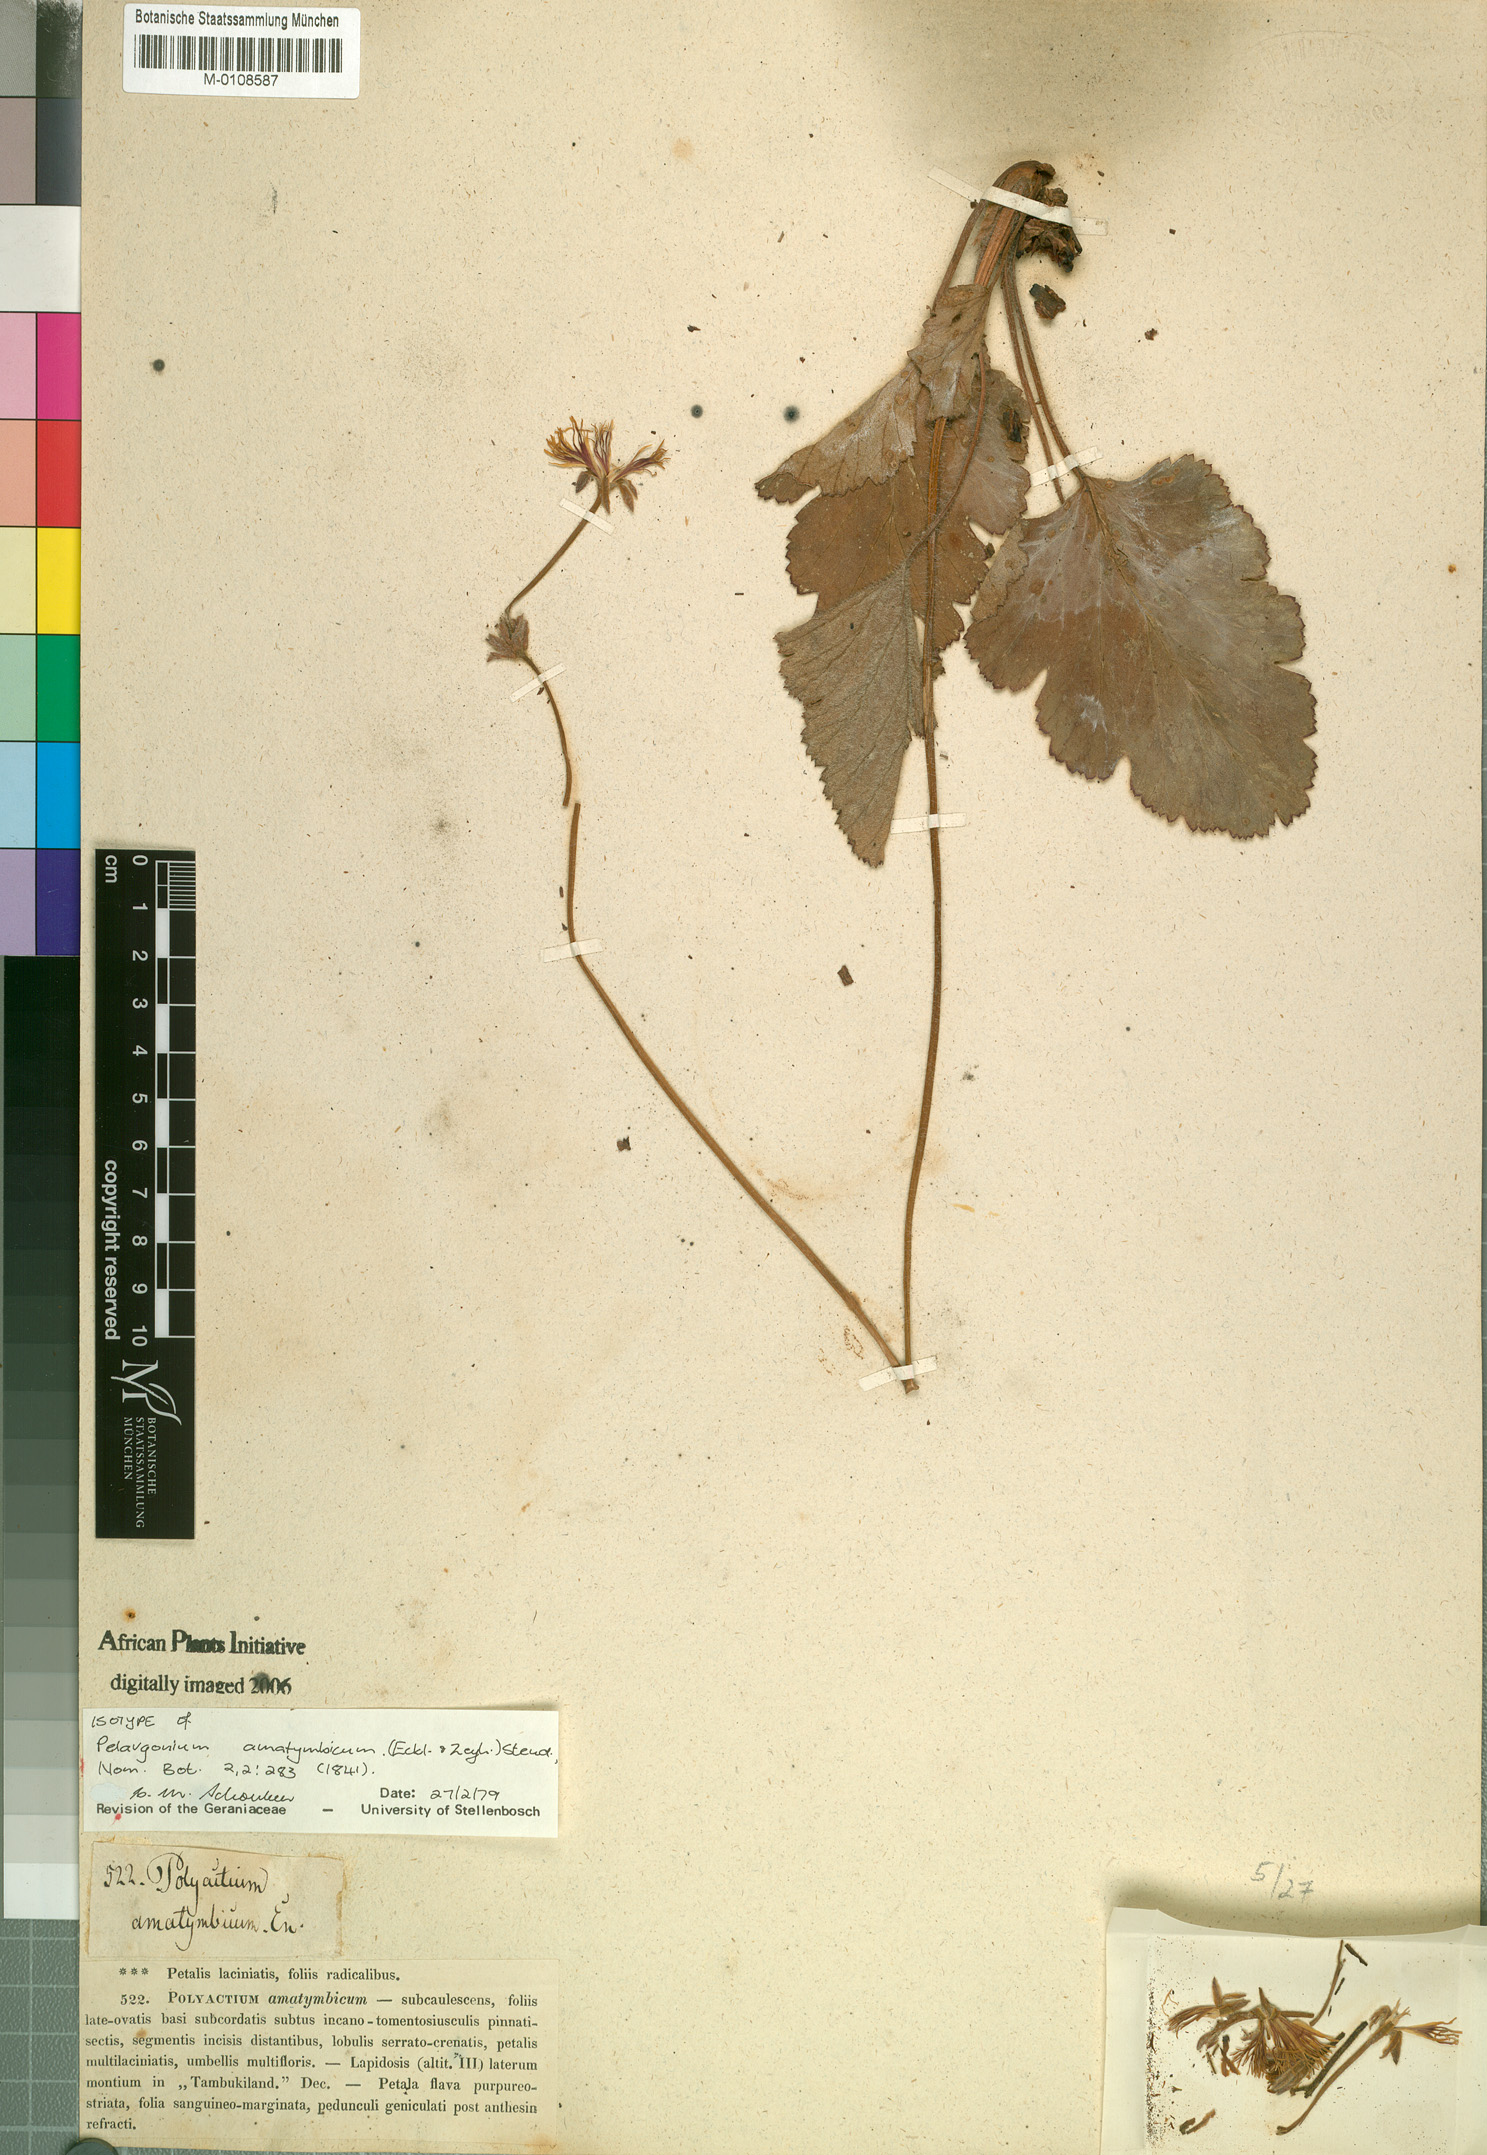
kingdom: Plantae
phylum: Tracheophyta
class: Magnoliopsida
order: Geraniales
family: Geraniaceae
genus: Pelargonium
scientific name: Pelargonium schizopetalum
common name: Divided-petal pelargonium
